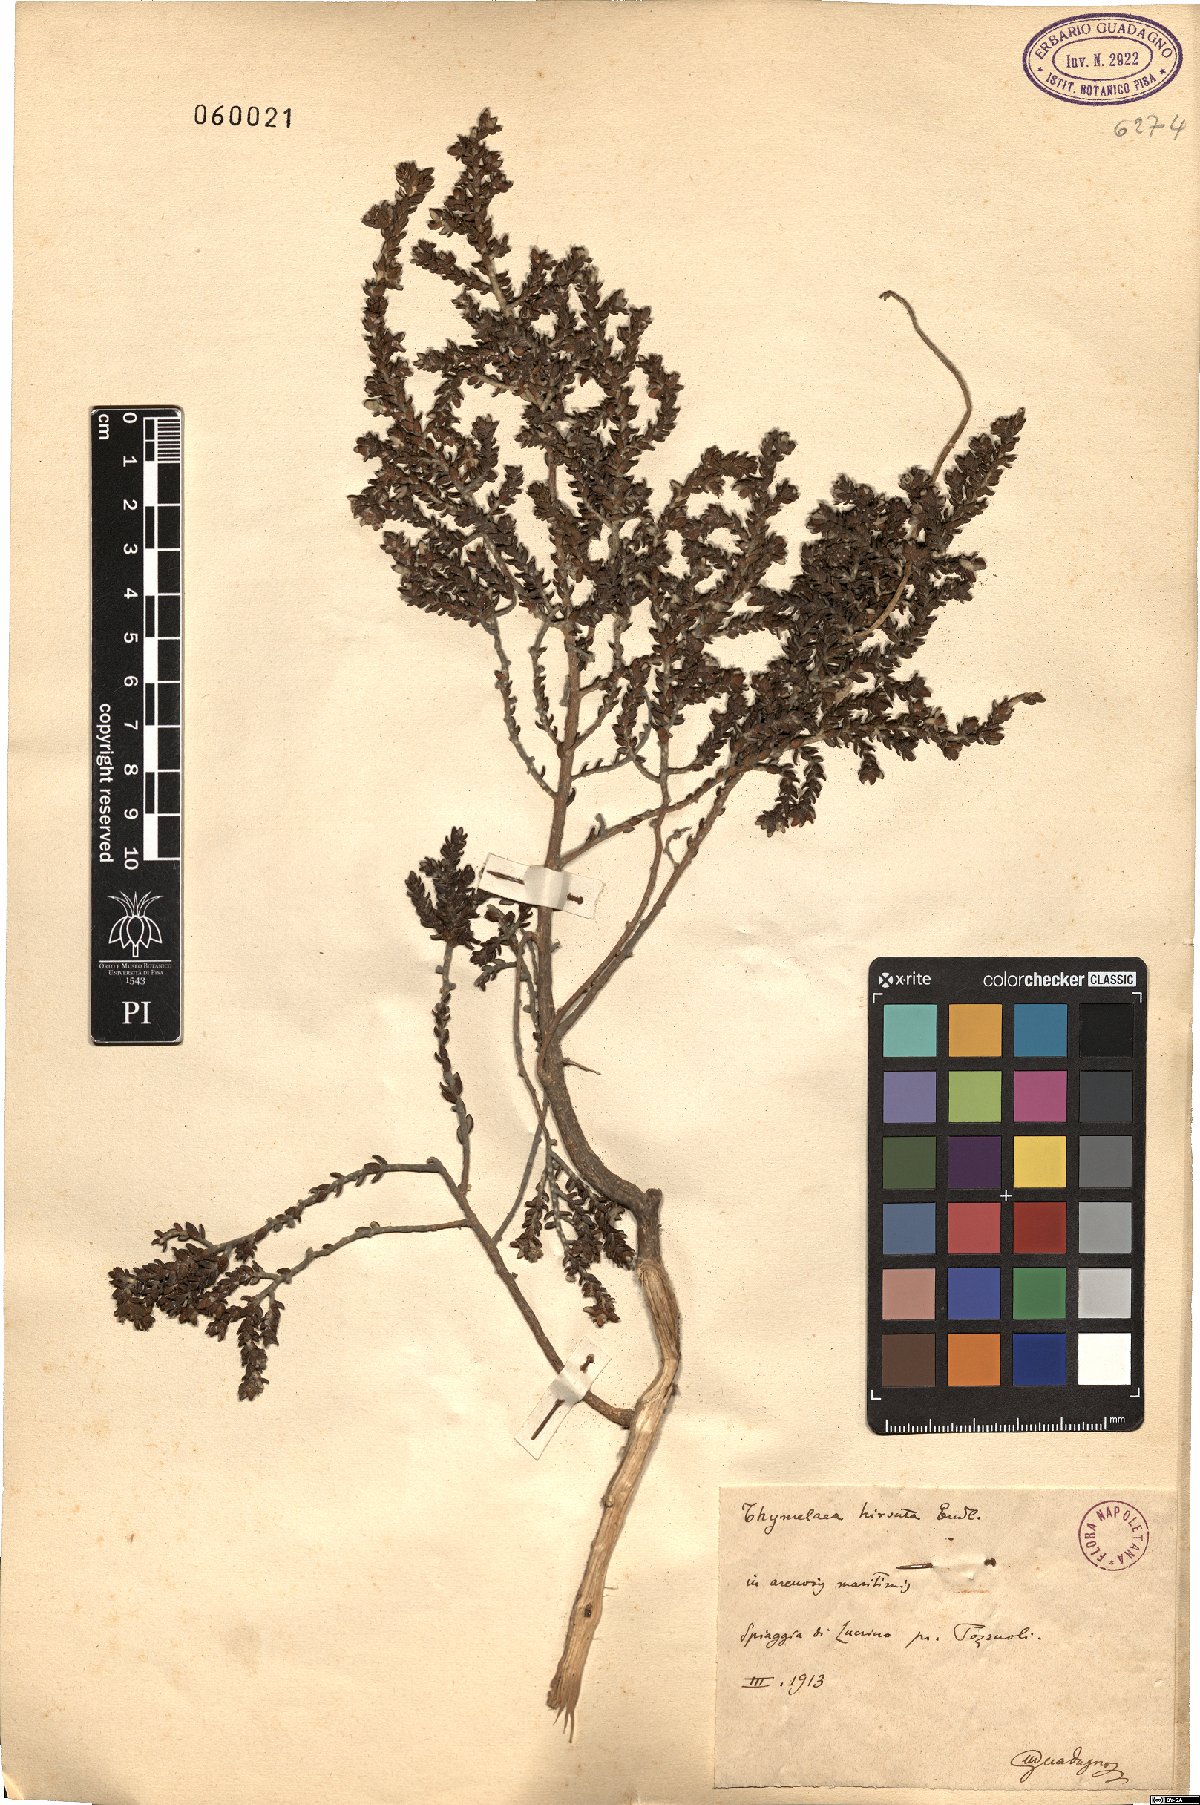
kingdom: Plantae
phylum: Tracheophyta
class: Magnoliopsida
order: Malvales
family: Thymelaeaceae
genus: Thymelaea
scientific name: Thymelaea hirsuta
